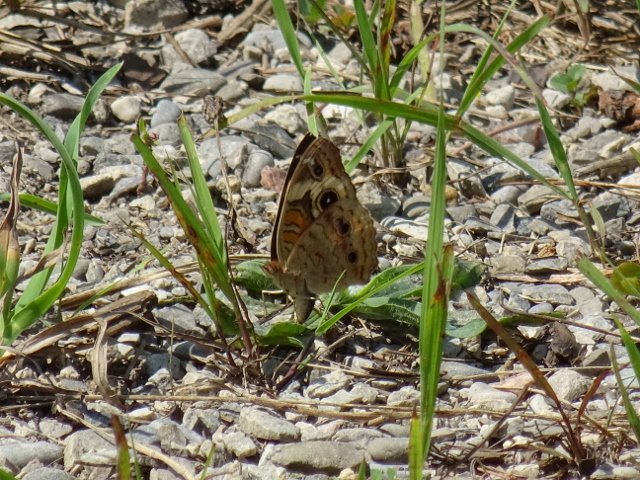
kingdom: Animalia
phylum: Arthropoda
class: Insecta
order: Lepidoptera
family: Nymphalidae
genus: Junonia
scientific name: Junonia coenia
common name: Common Buckeye
